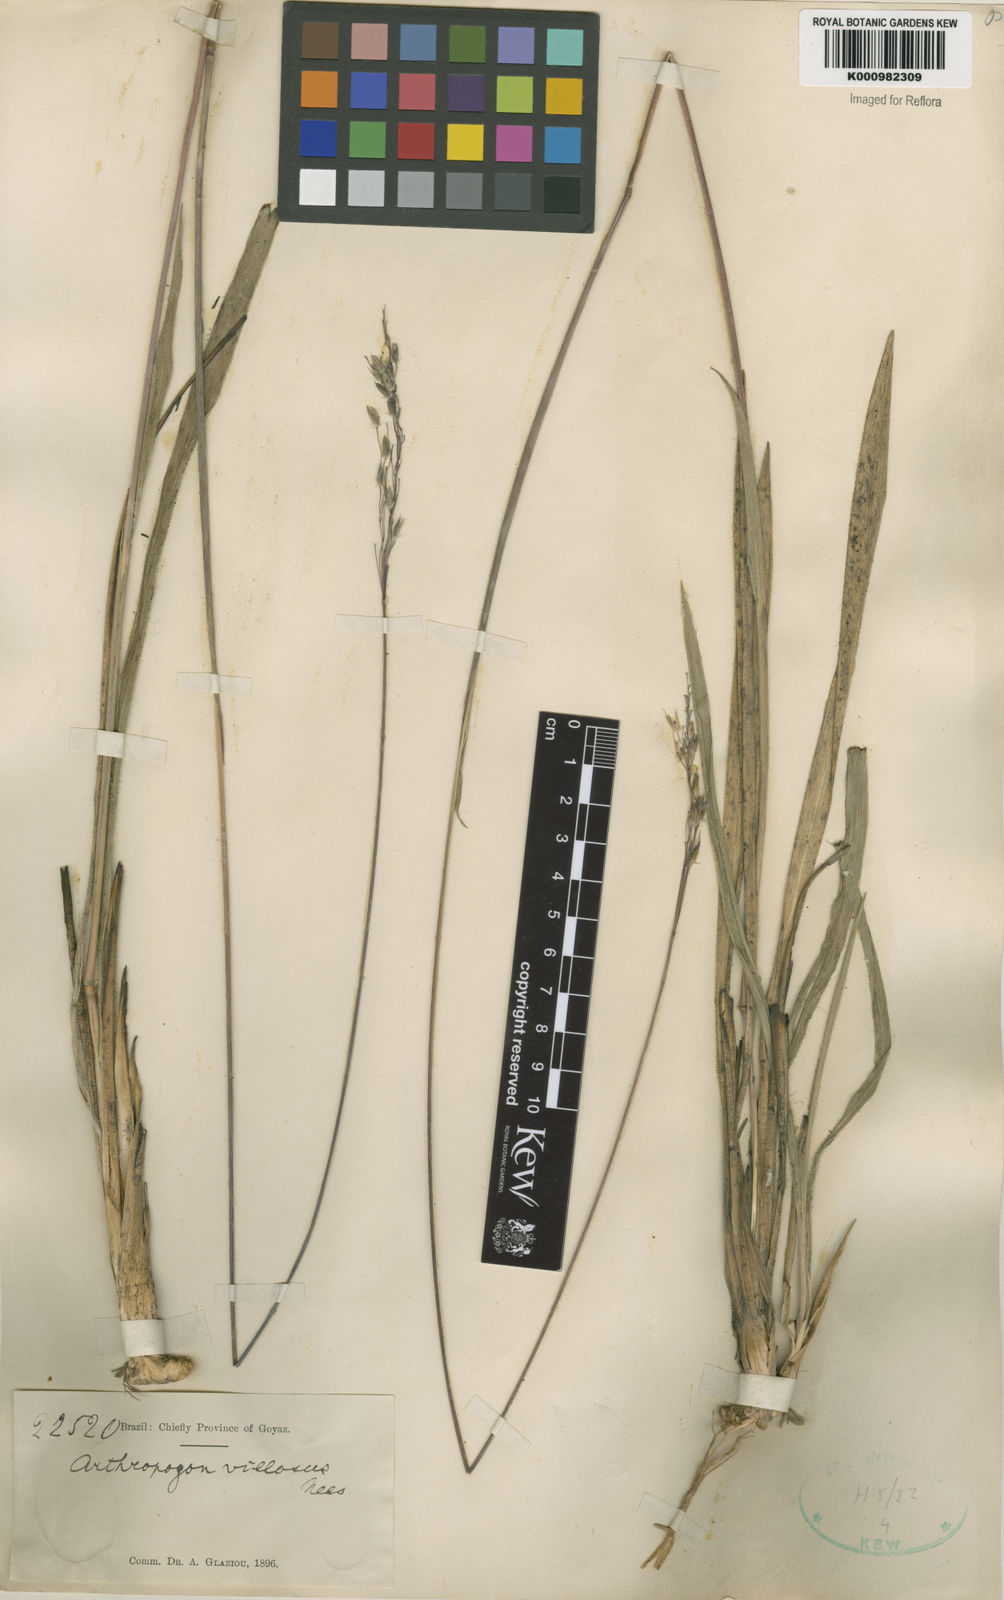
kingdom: Plantae
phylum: Tracheophyta
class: Liliopsida
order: Poales
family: Poaceae
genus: Arthropogon
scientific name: Arthropogon villosus
